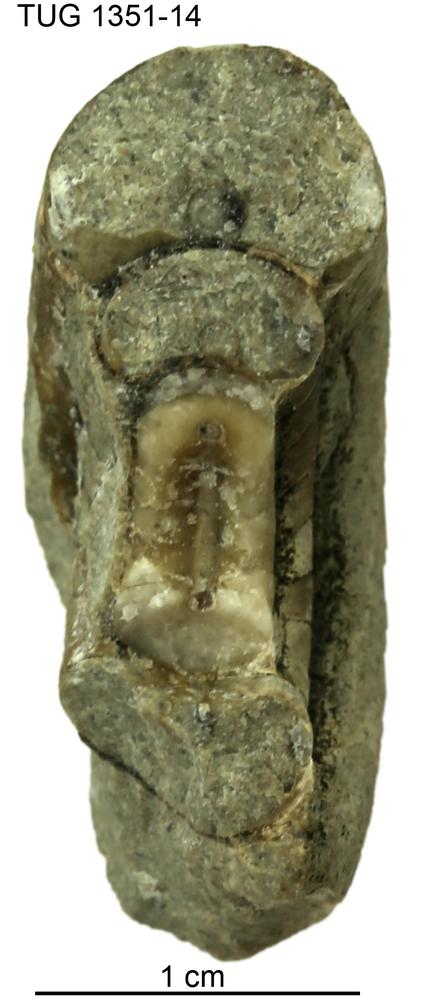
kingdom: Animalia
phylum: Mollusca
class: Cephalopoda
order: Nautilida
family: Nautilidae
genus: Curtoceras
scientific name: Curtoceras
